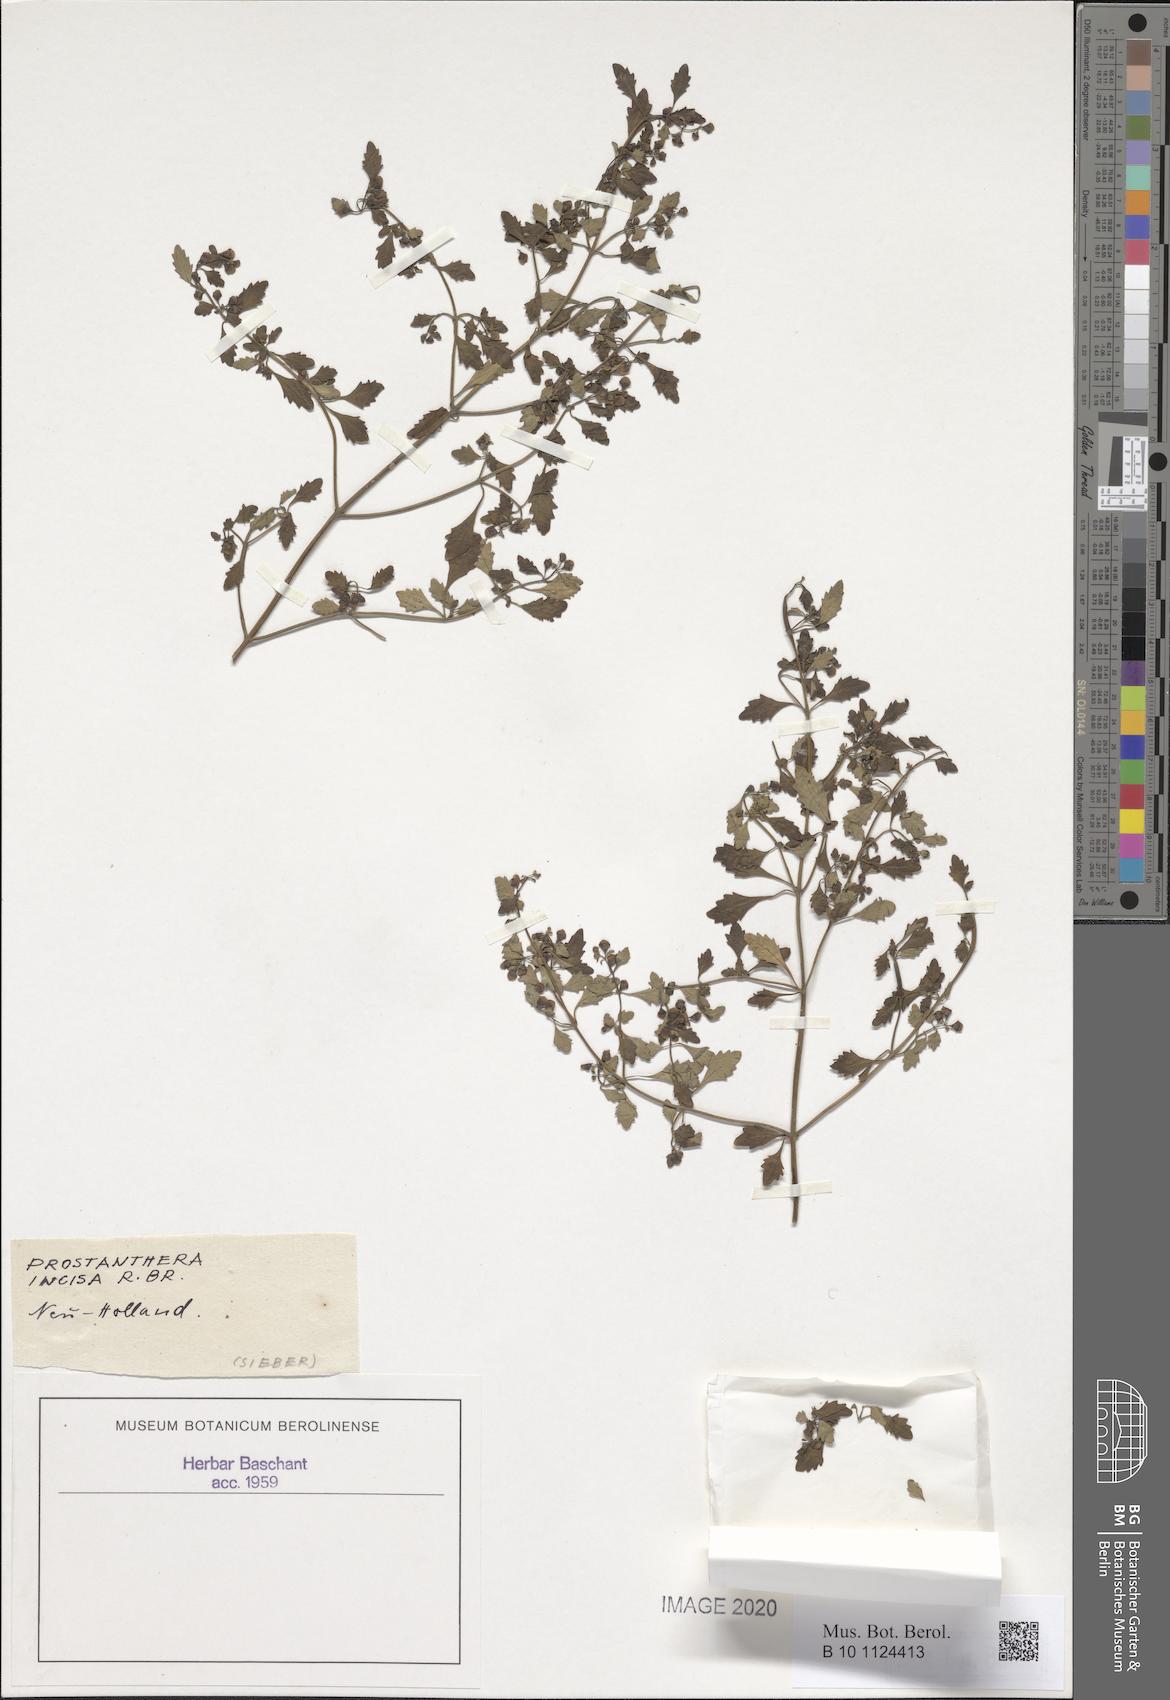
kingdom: Plantae
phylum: Tracheophyta
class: Magnoliopsida
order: Lamiales
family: Lamiaceae
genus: Prostanthera
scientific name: Prostanthera incisa
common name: Cut-leaf mintbush
